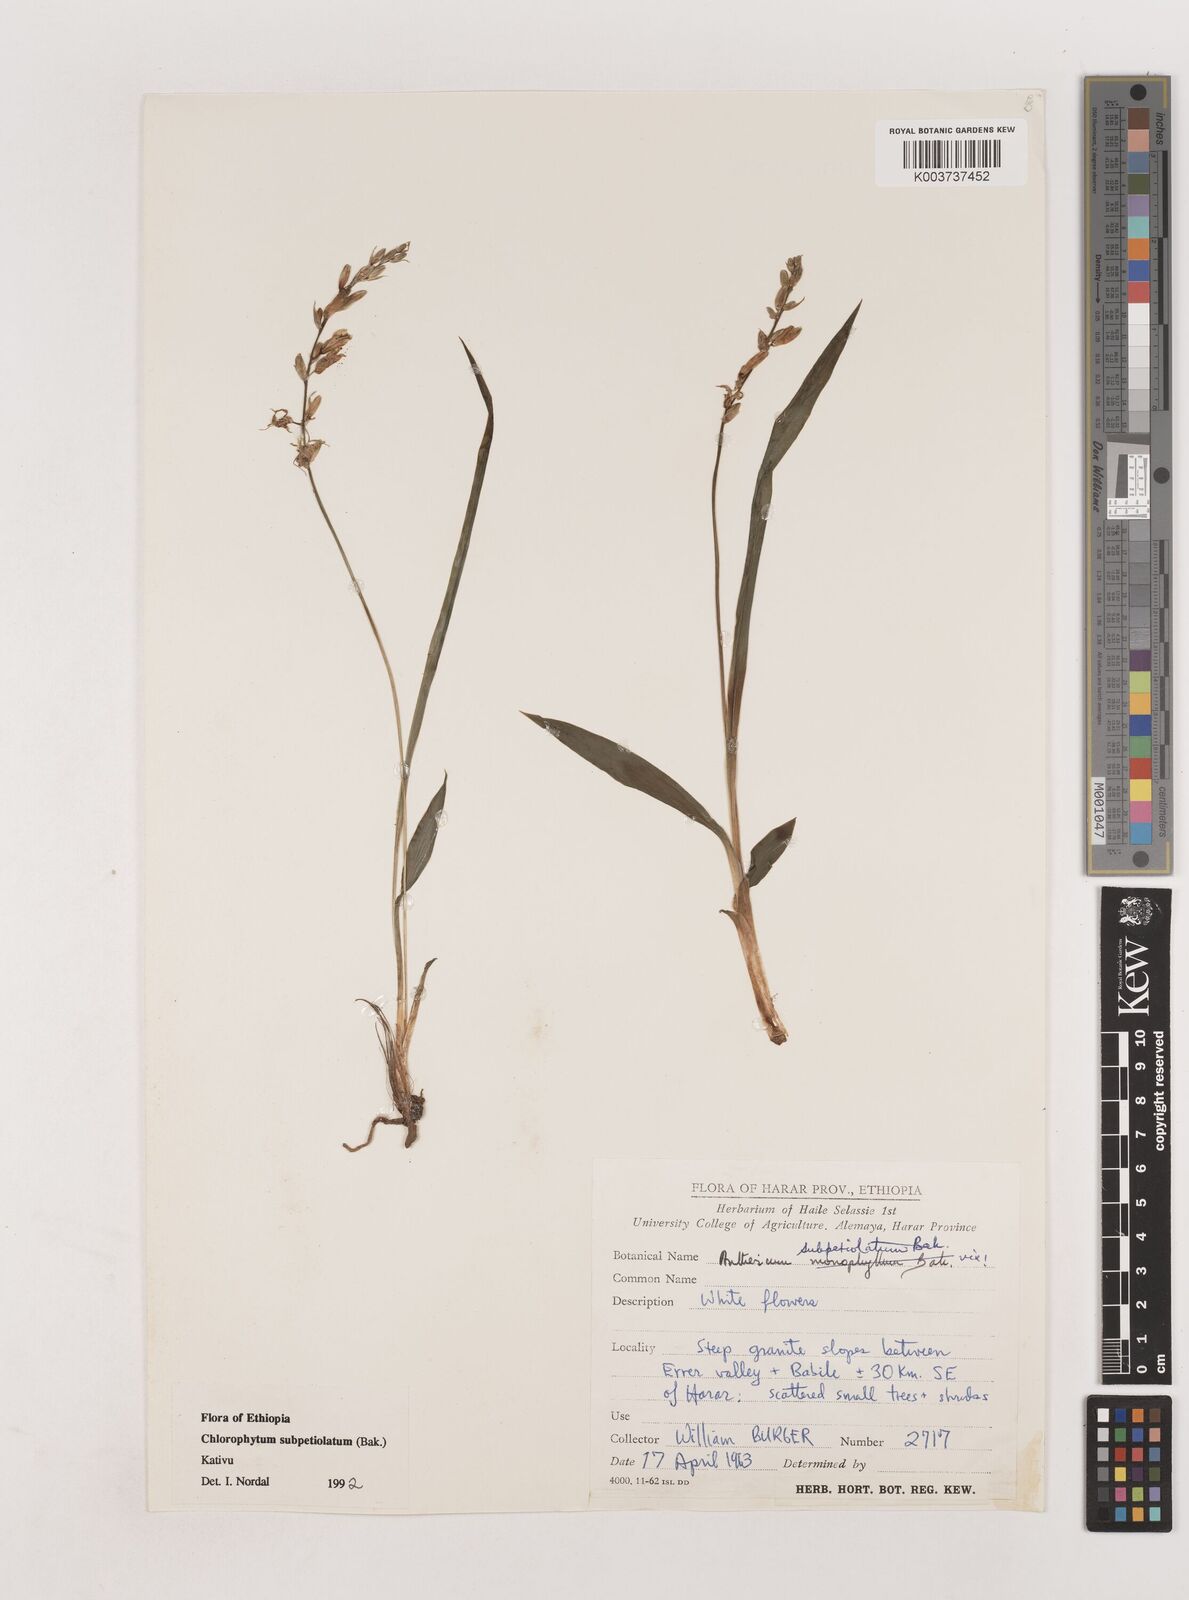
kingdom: Plantae
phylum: Tracheophyta
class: Liliopsida
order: Asparagales
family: Asparagaceae
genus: Chlorophytum
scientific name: Chlorophytum subpetiolatum
